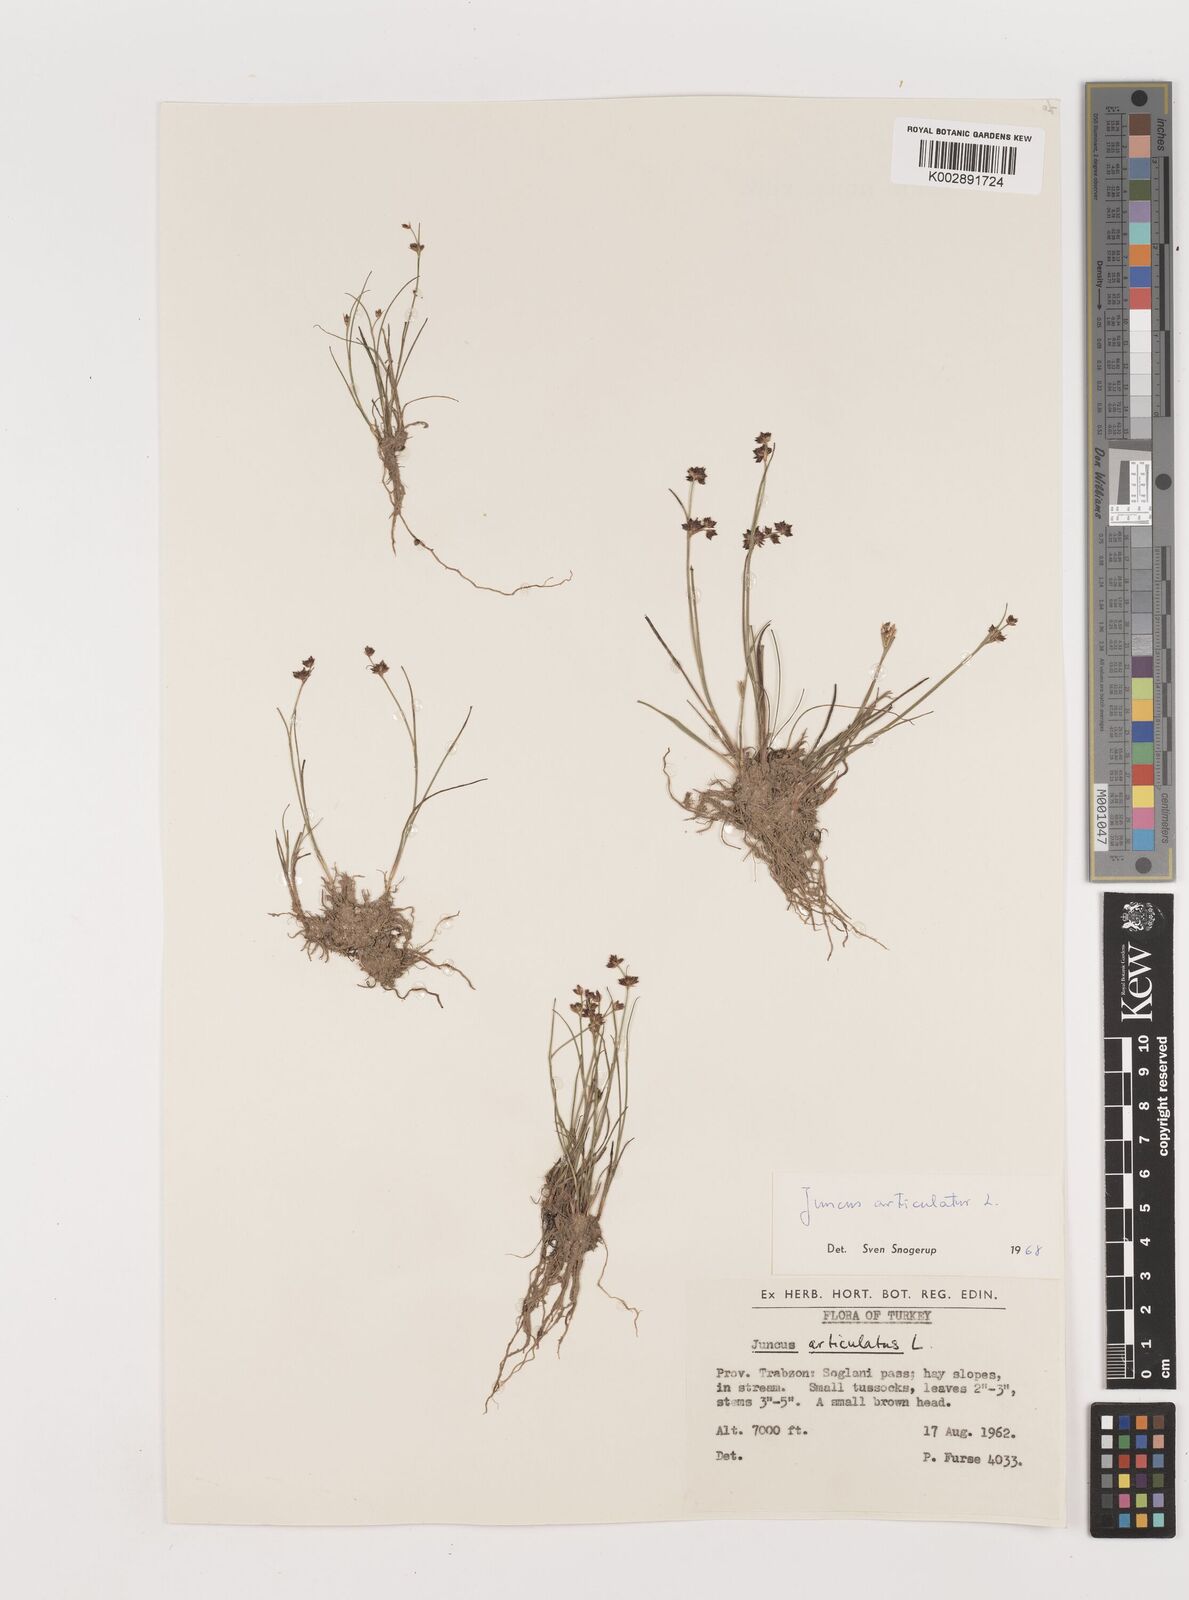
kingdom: Plantae
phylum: Tracheophyta
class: Liliopsida
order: Poales
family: Juncaceae
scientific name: Juncaceae
